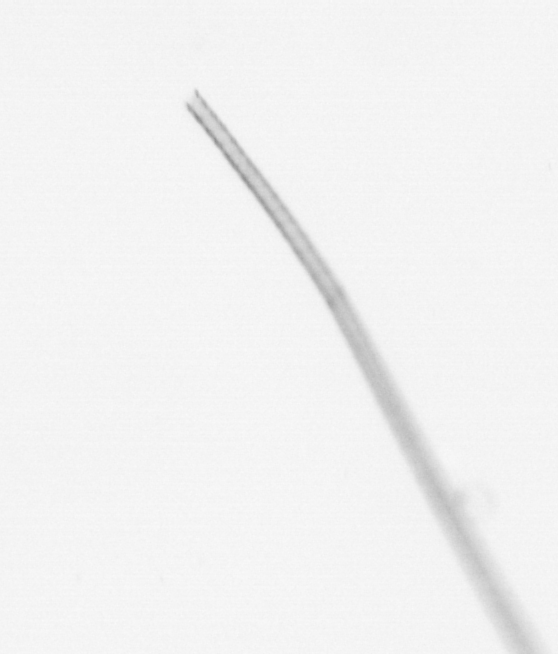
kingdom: Chromista
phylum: Ochrophyta
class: Bacillariophyceae
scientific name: Bacillariophyceae
